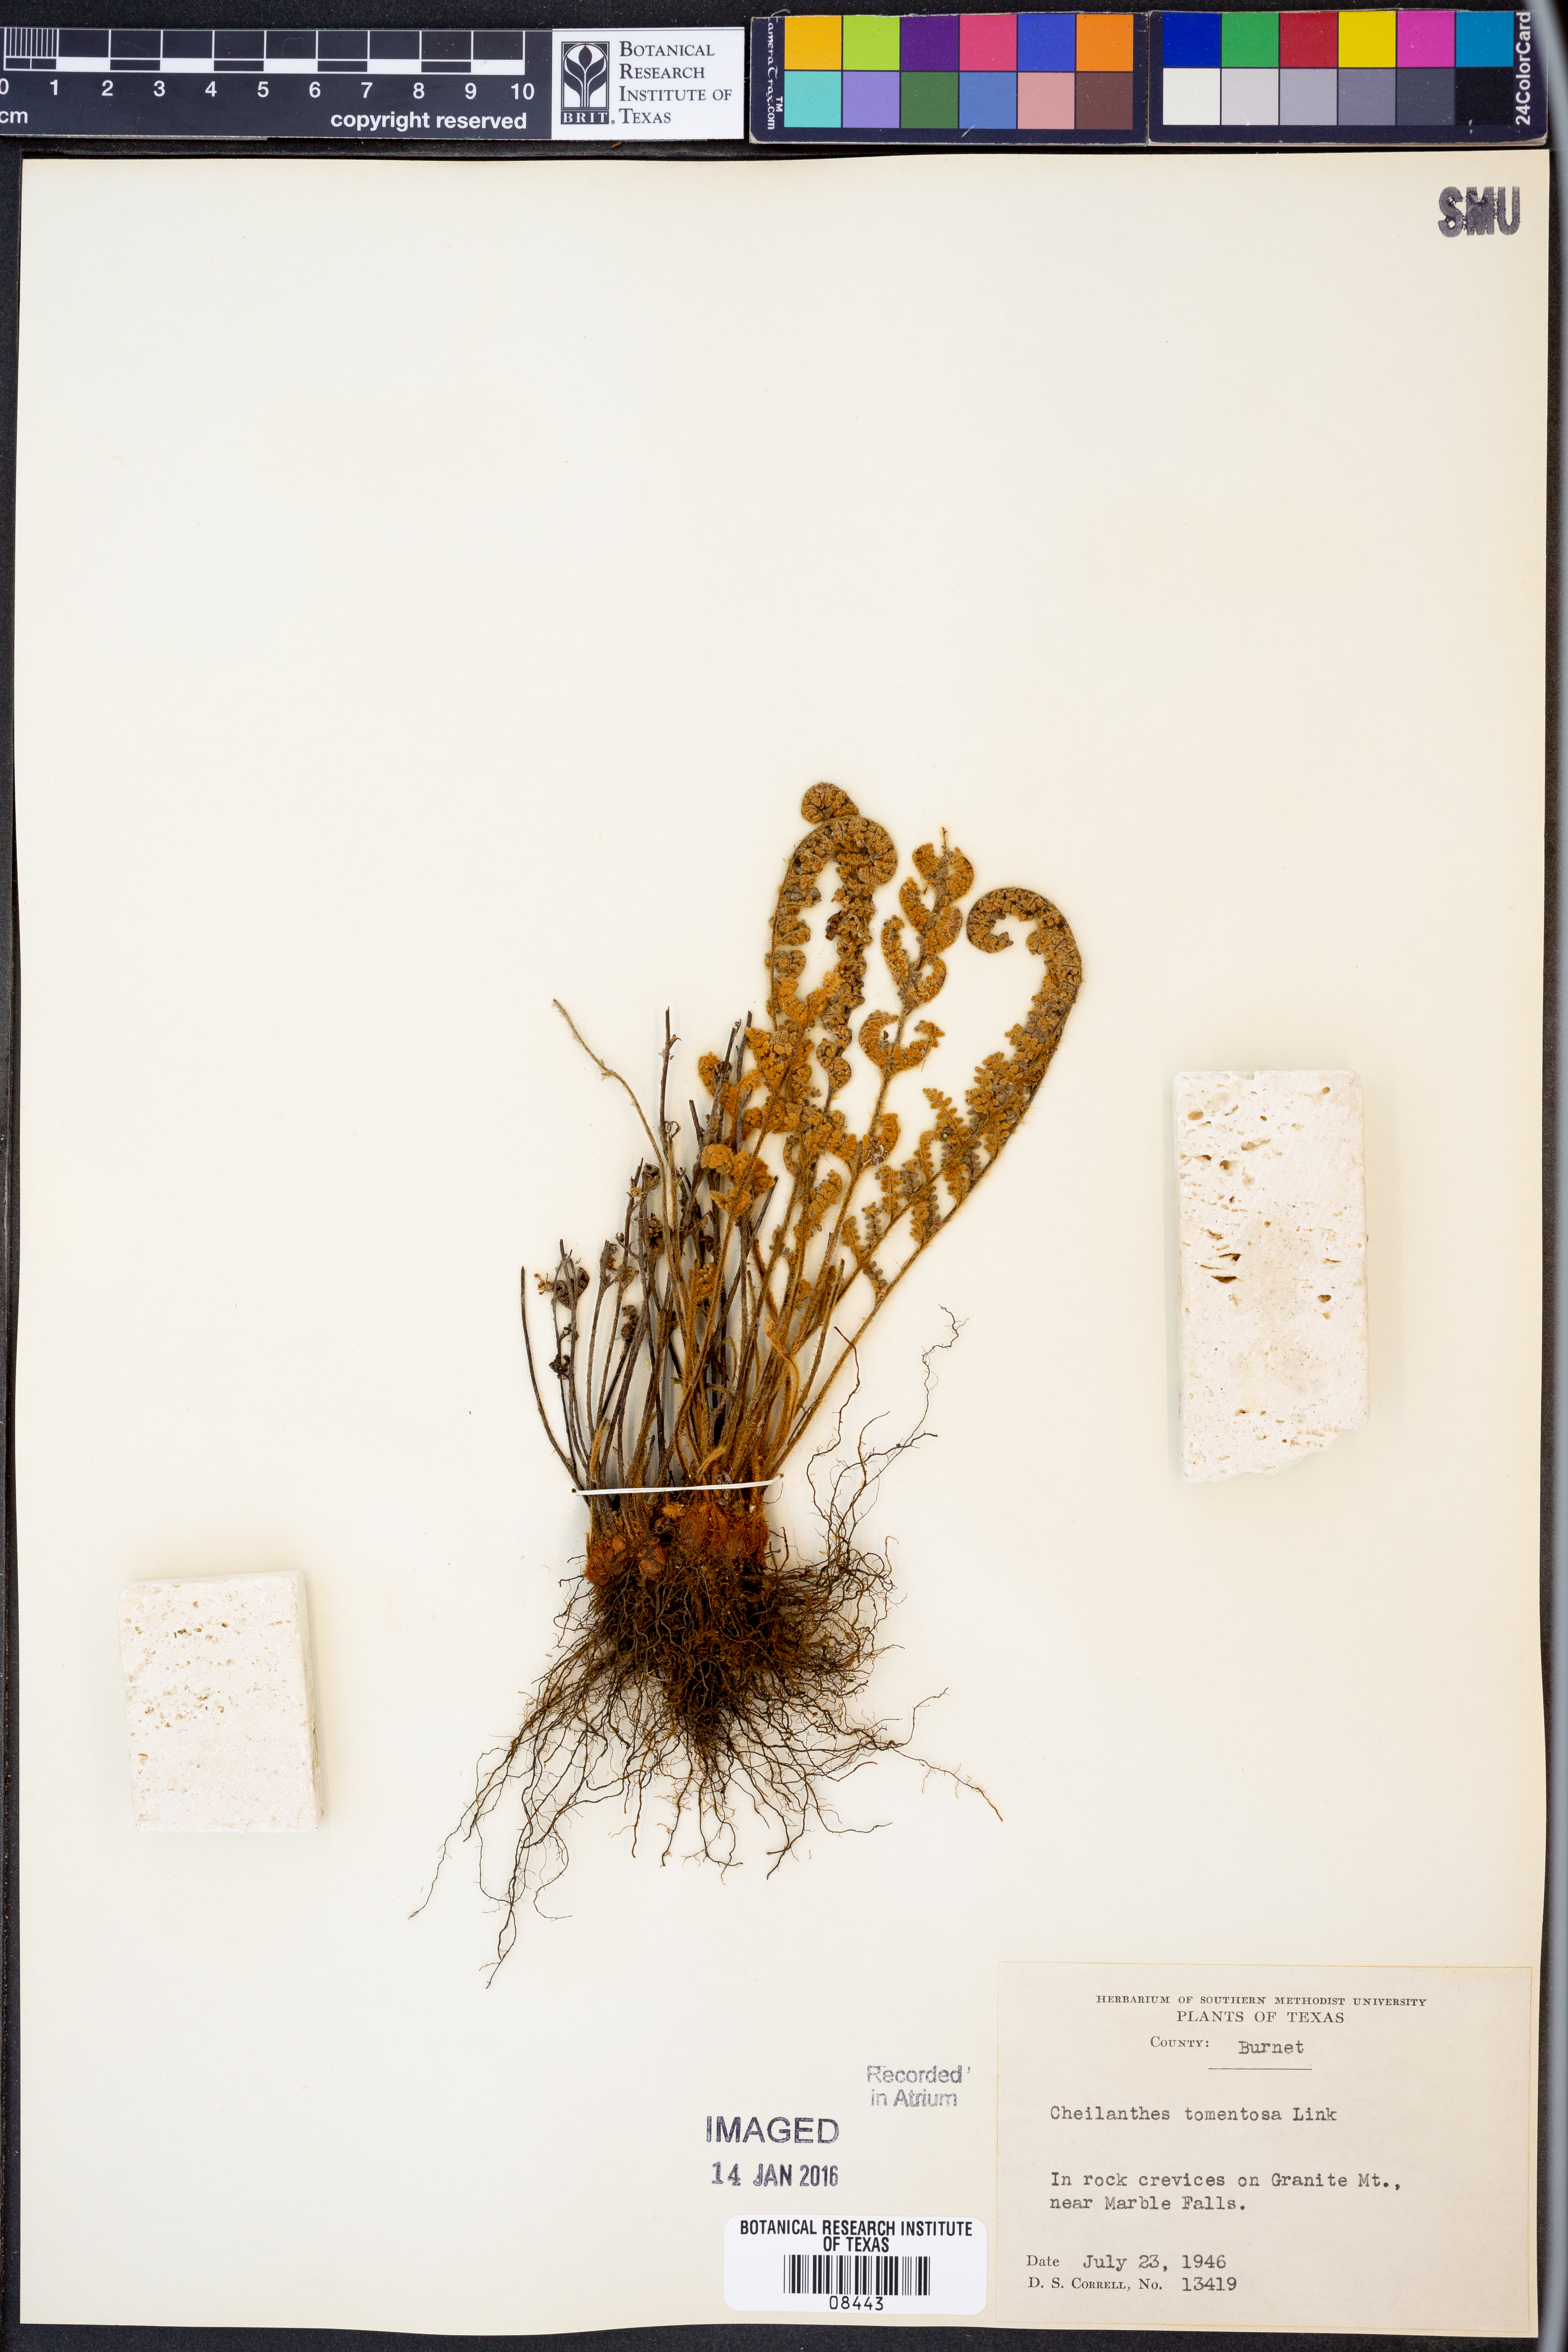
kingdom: Plantae
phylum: Tracheophyta
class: Polypodiopsida
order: Polypodiales
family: Pteridaceae
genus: Myriopteris
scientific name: Myriopteris tomentosa
